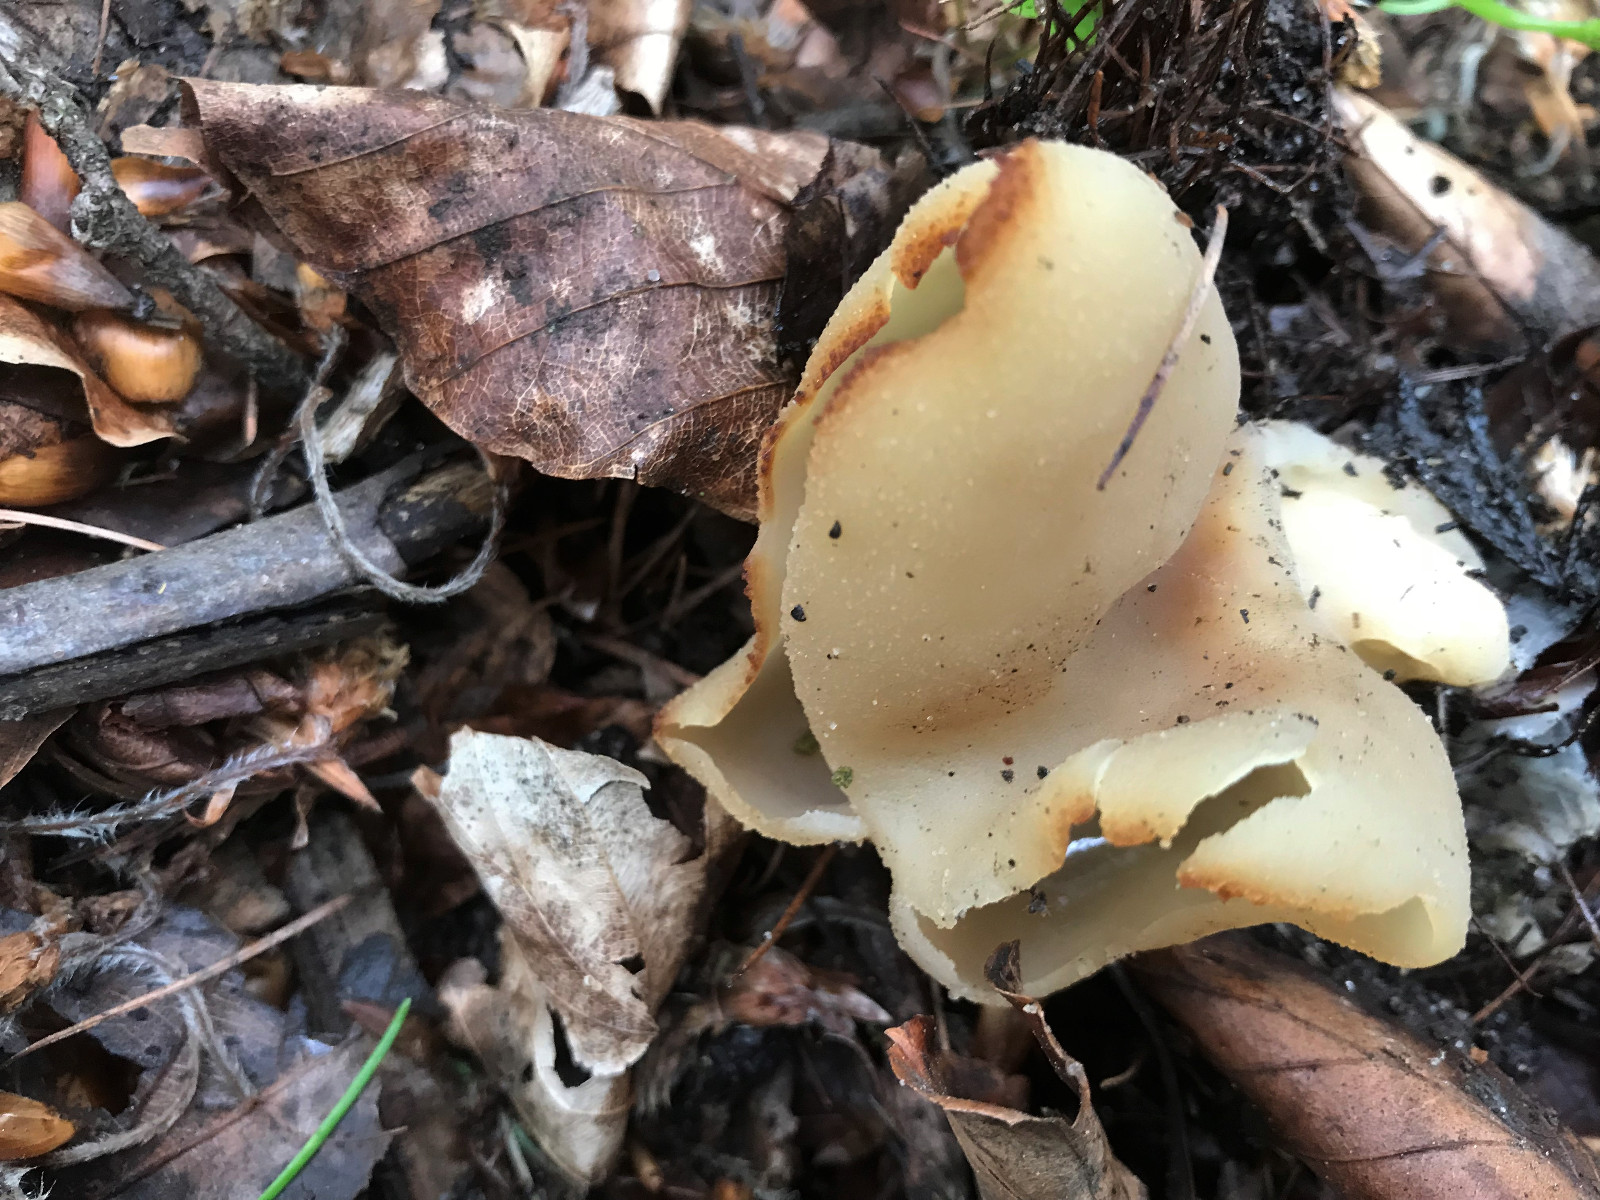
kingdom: Fungi
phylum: Ascomycota
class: Pezizomycetes
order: Pezizales
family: Pezizaceae
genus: Peziza
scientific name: Peziza
